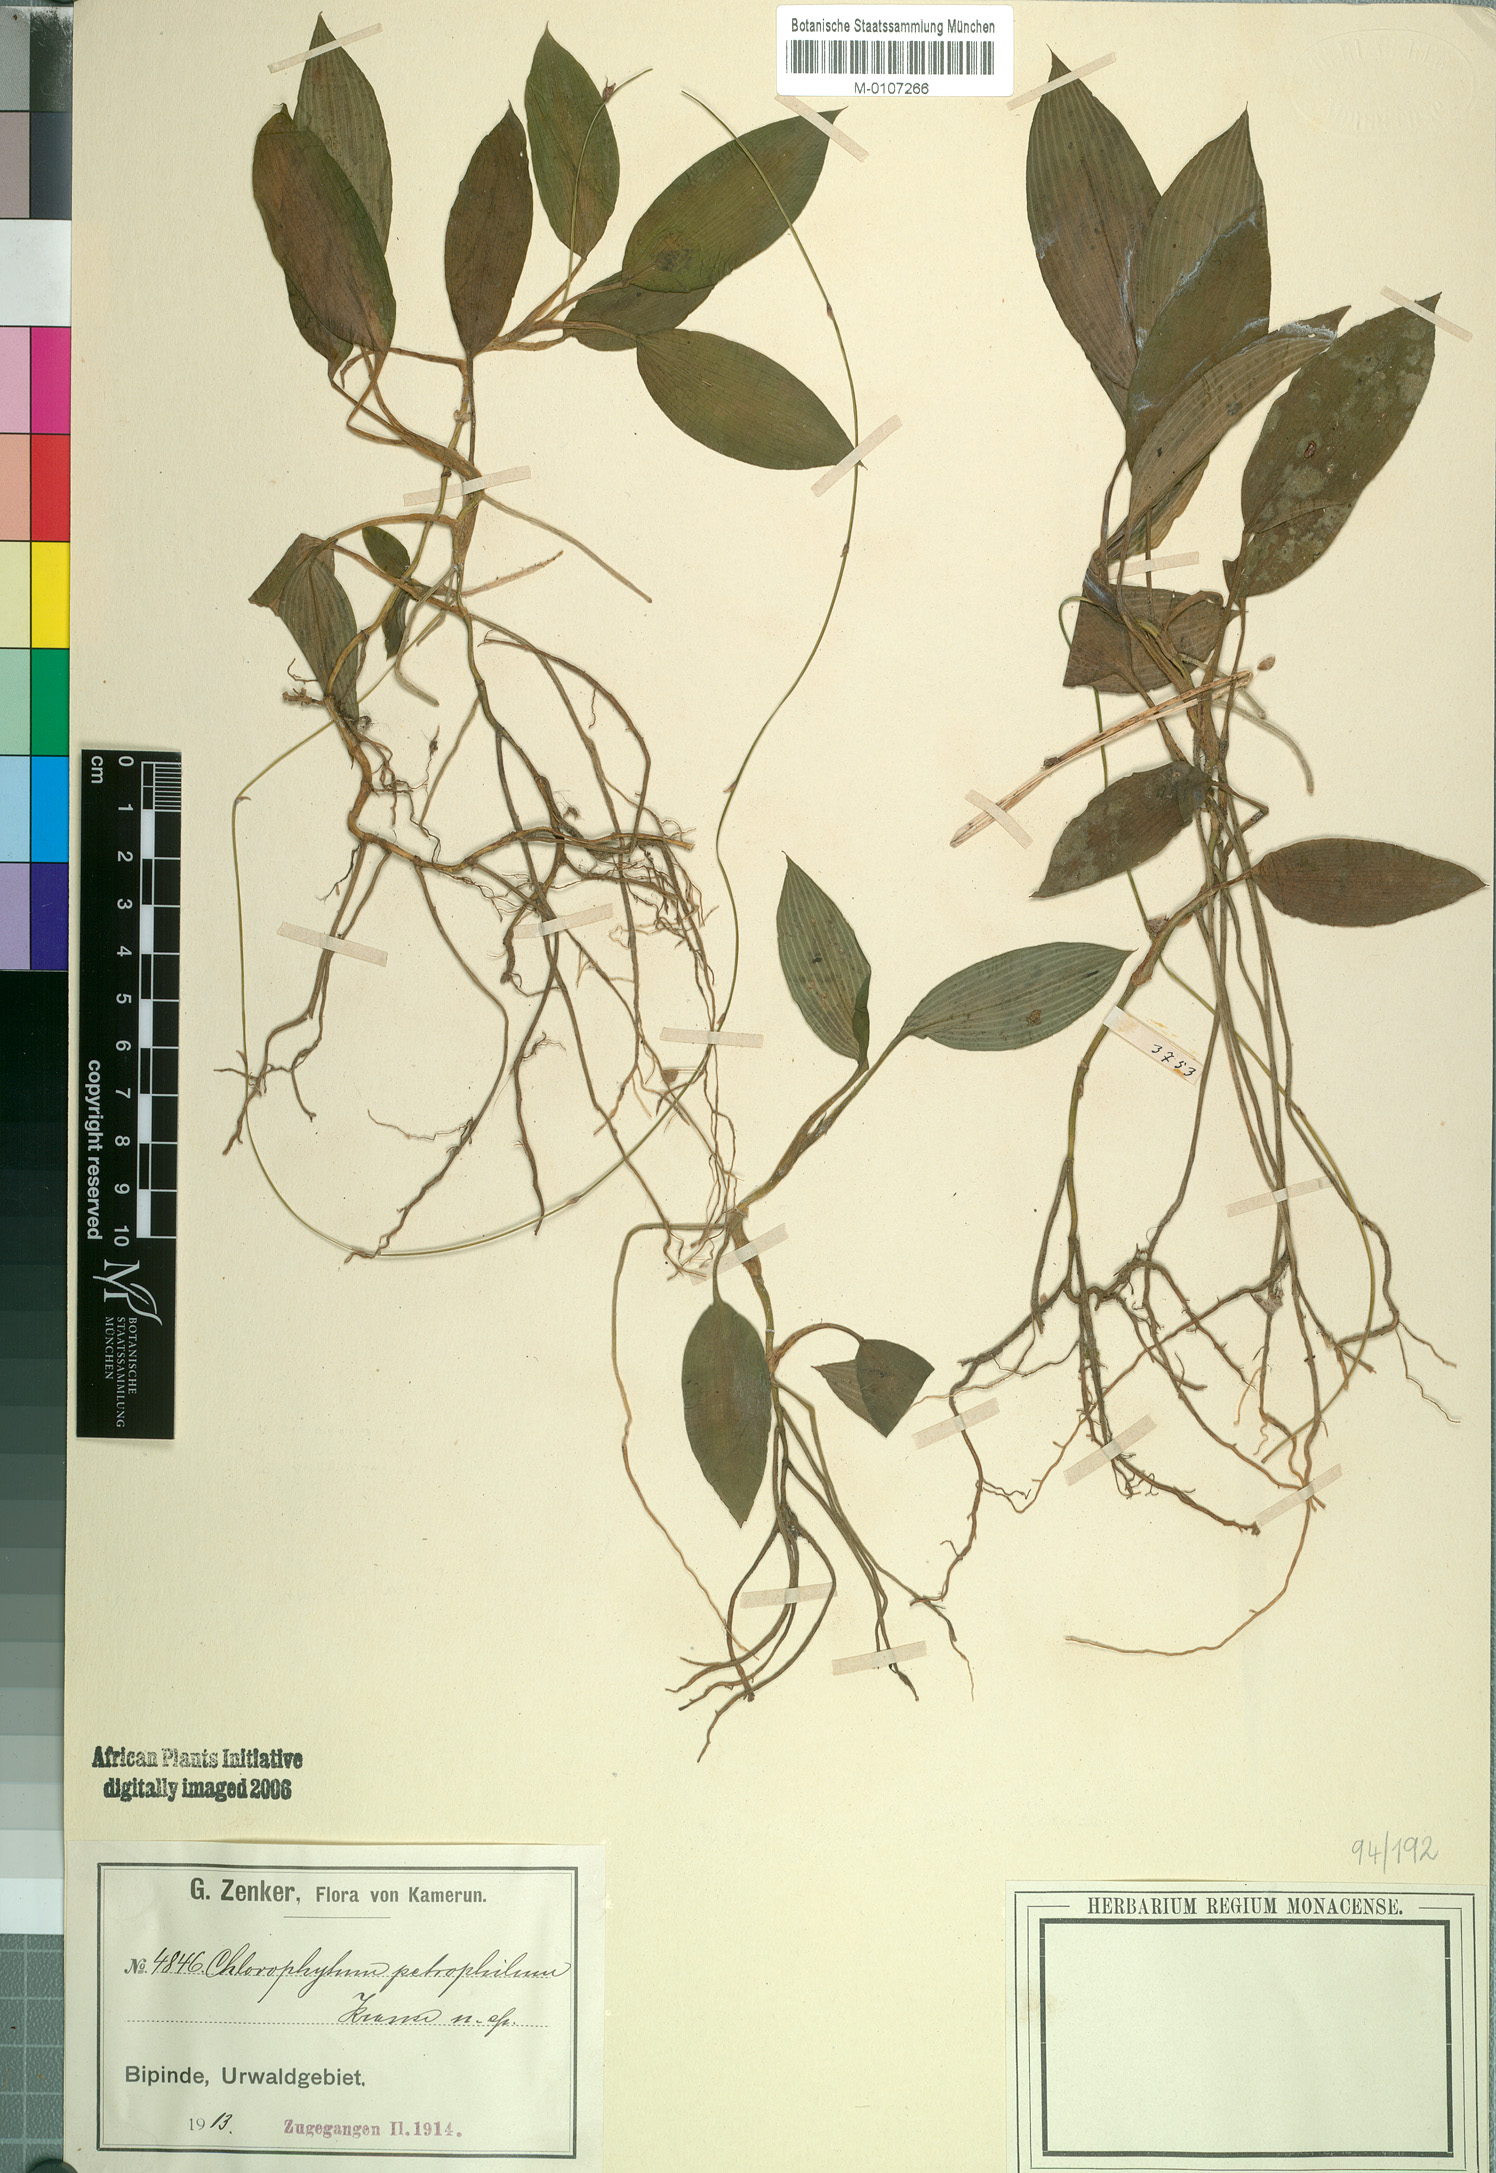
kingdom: Plantae
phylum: Tracheophyta
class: Liliopsida
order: Asparagales
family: Asparagaceae
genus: Chlorophytum
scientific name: Chlorophytum petrophilum
